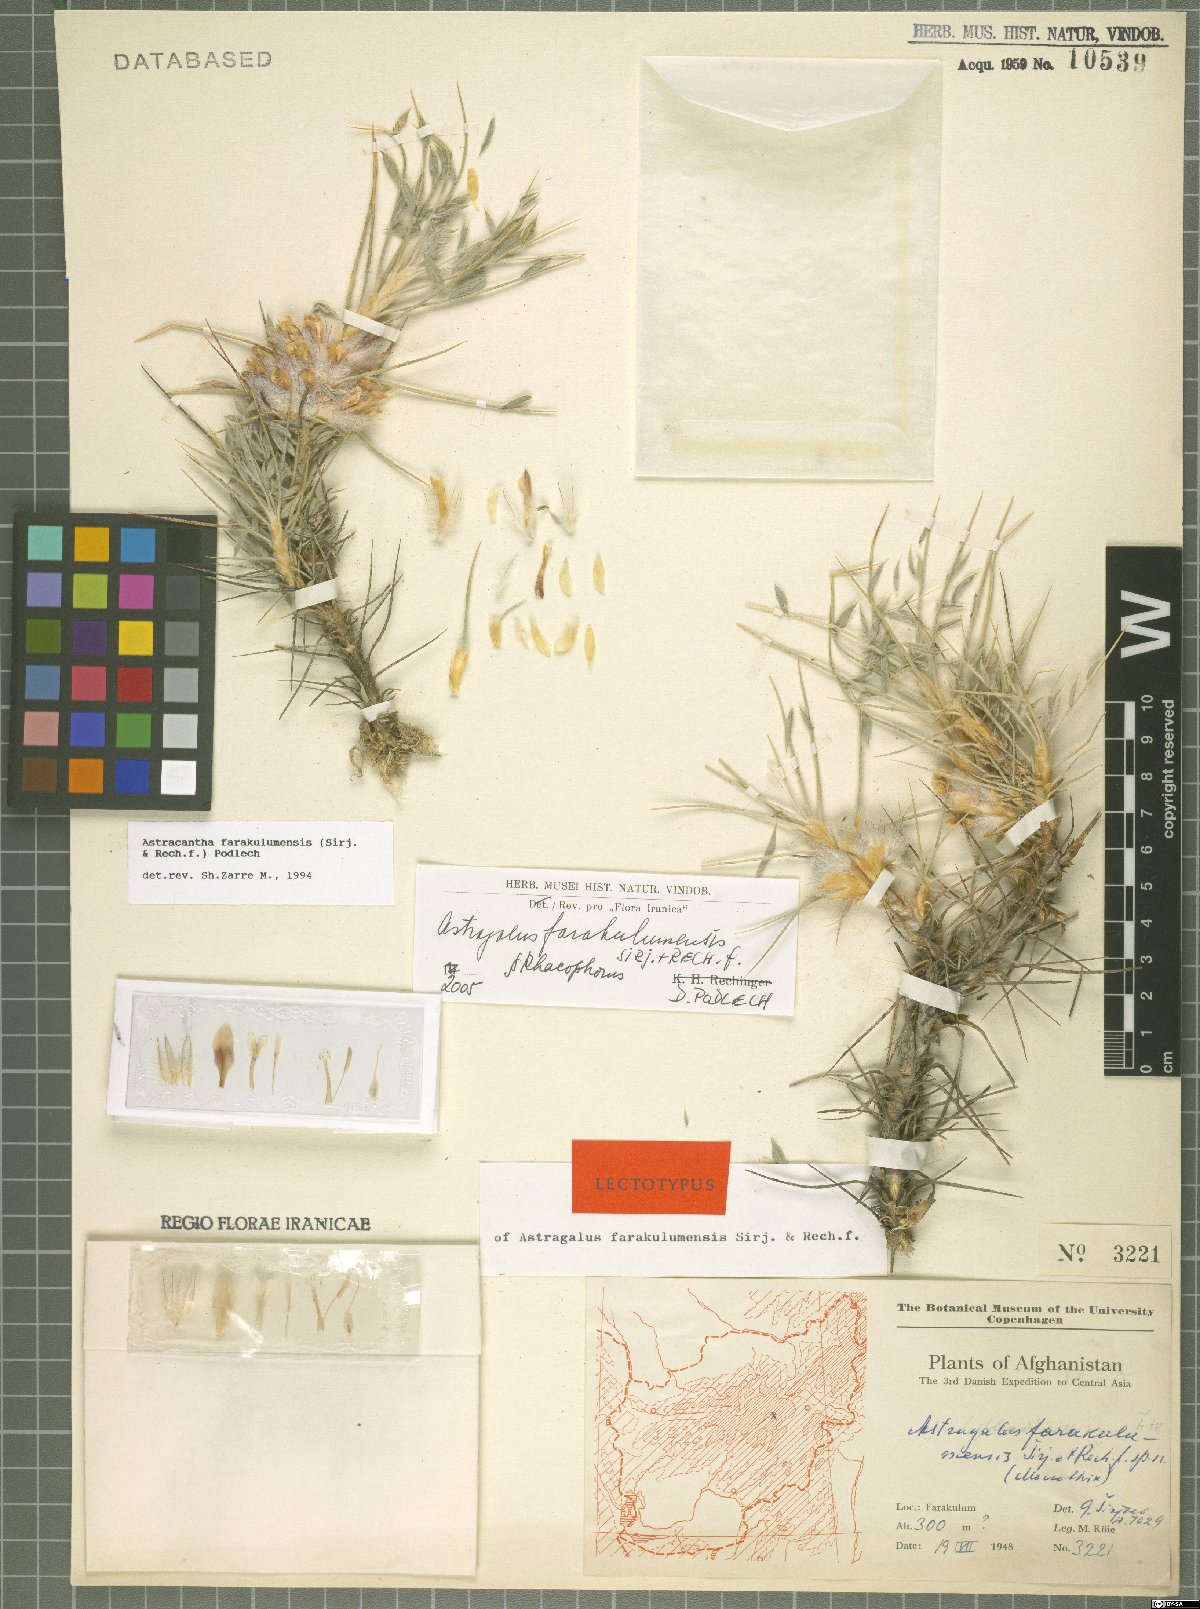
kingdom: Plantae
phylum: Tracheophyta
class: Magnoliopsida
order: Fabales
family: Fabaceae
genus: Astragalus
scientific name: Astragalus farakulumensis
